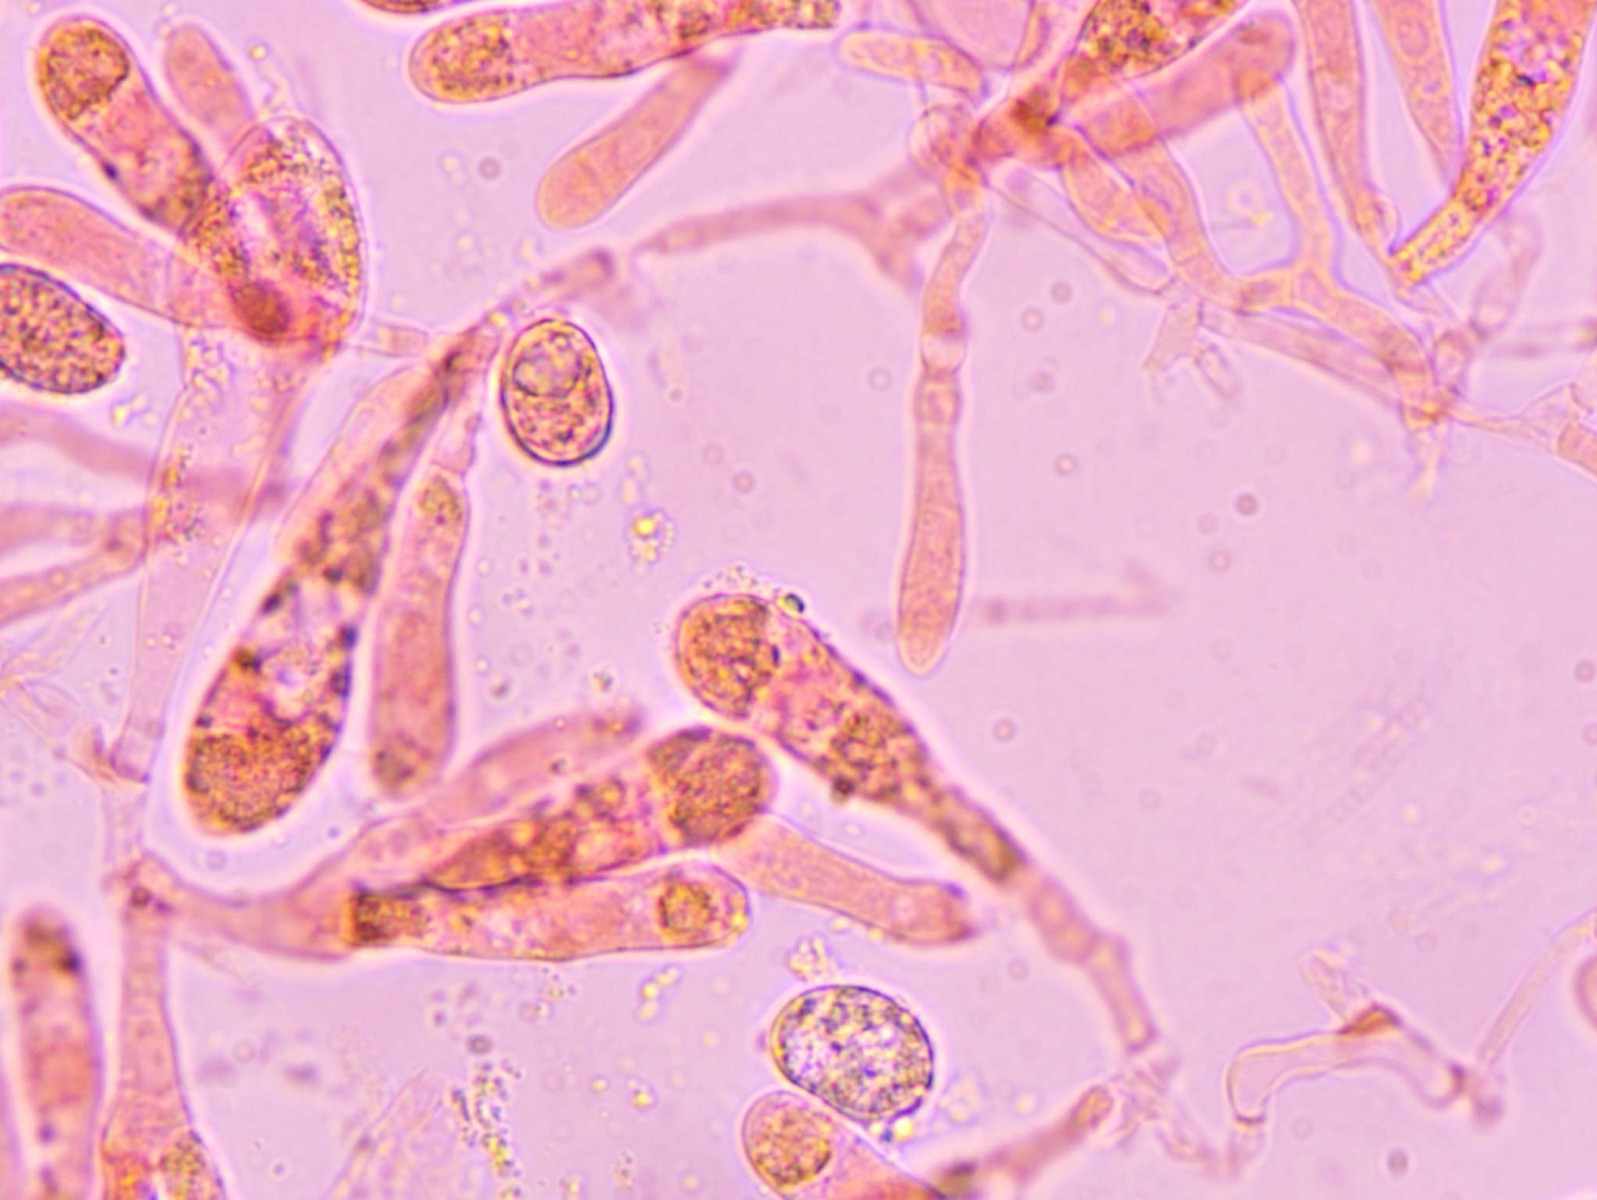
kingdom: Fungi
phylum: Basidiomycota
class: Agaricomycetes
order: Agaricales
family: Hygrophoraceae
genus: Hygrocybe
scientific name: Hygrocybe acutoconica
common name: Konrads vokshat
